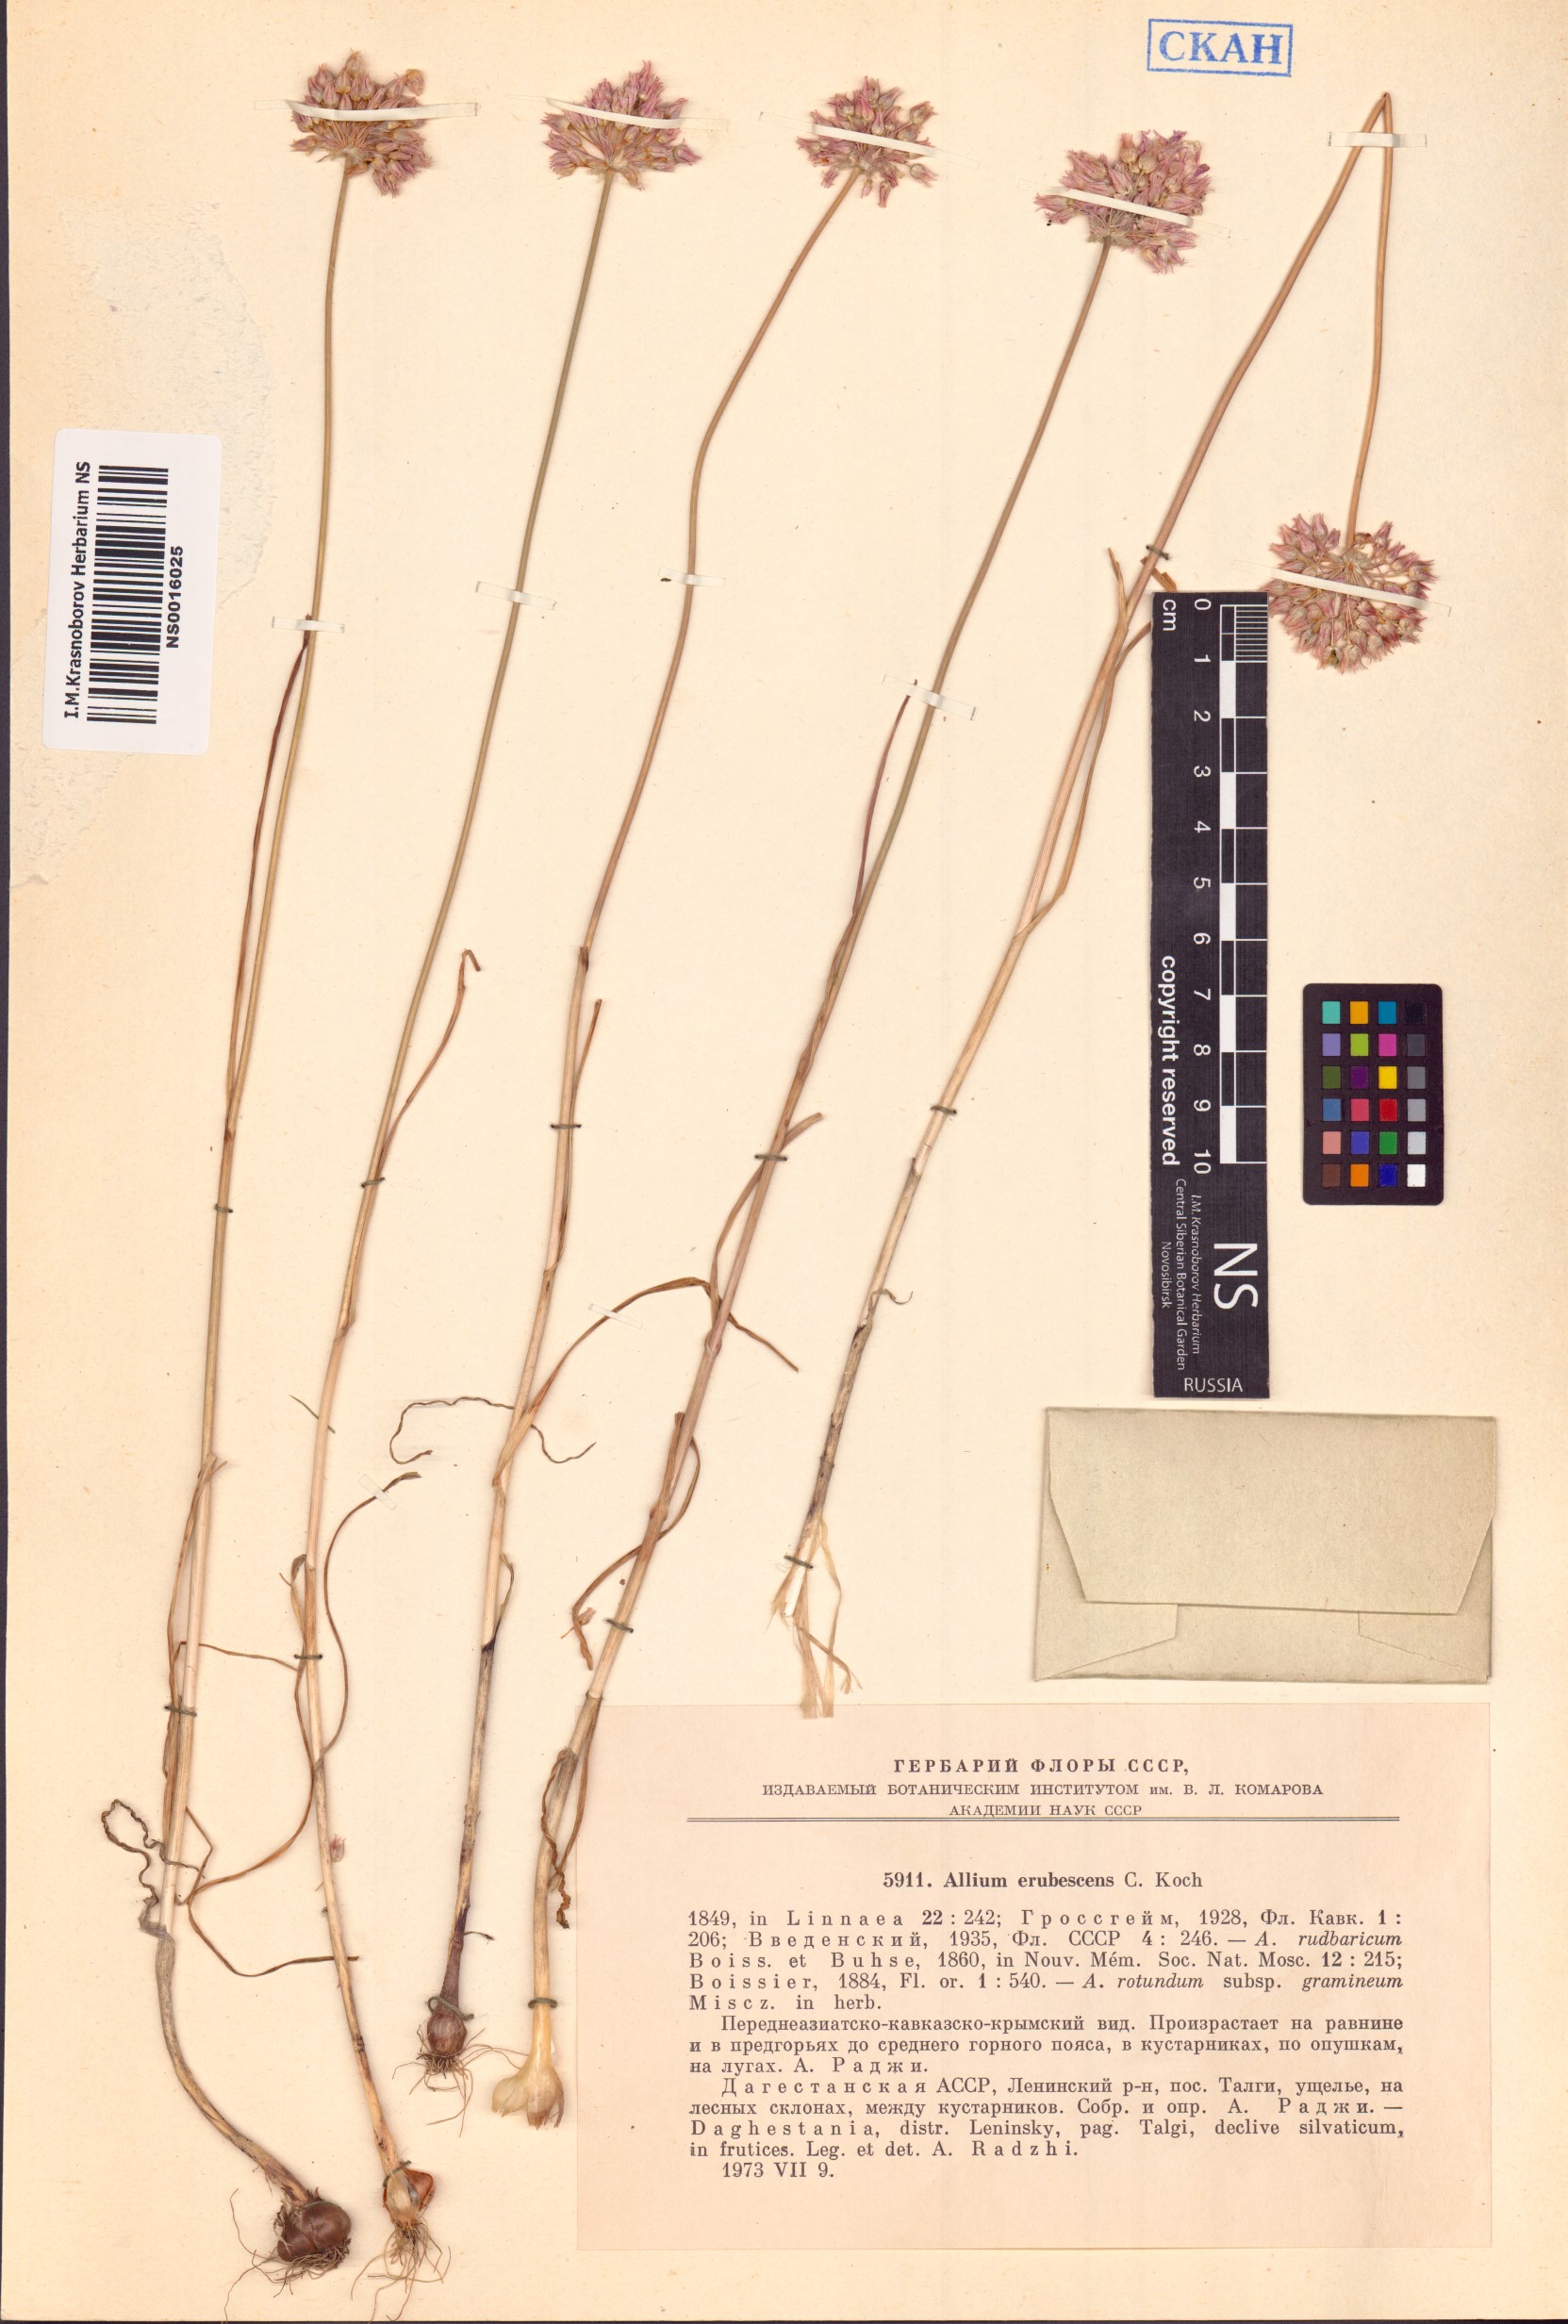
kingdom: Plantae
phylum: Tracheophyta
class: Liliopsida
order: Asparagales
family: Amaryllidaceae
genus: Allium
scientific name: Allium erubescens
